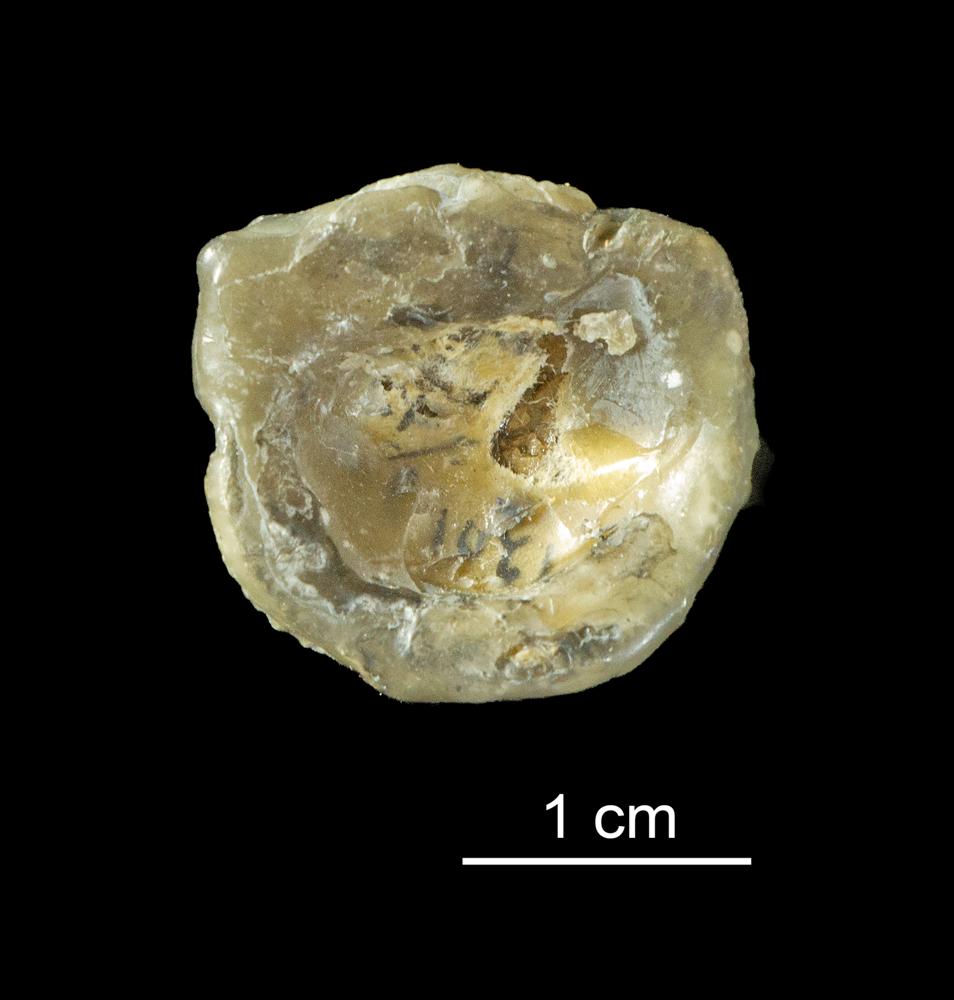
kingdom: Animalia
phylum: Brachiopoda
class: Rhynchonellata
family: Clitambonitidae
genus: Clitambonites
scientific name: Clitambonites Orthisina schmidti
